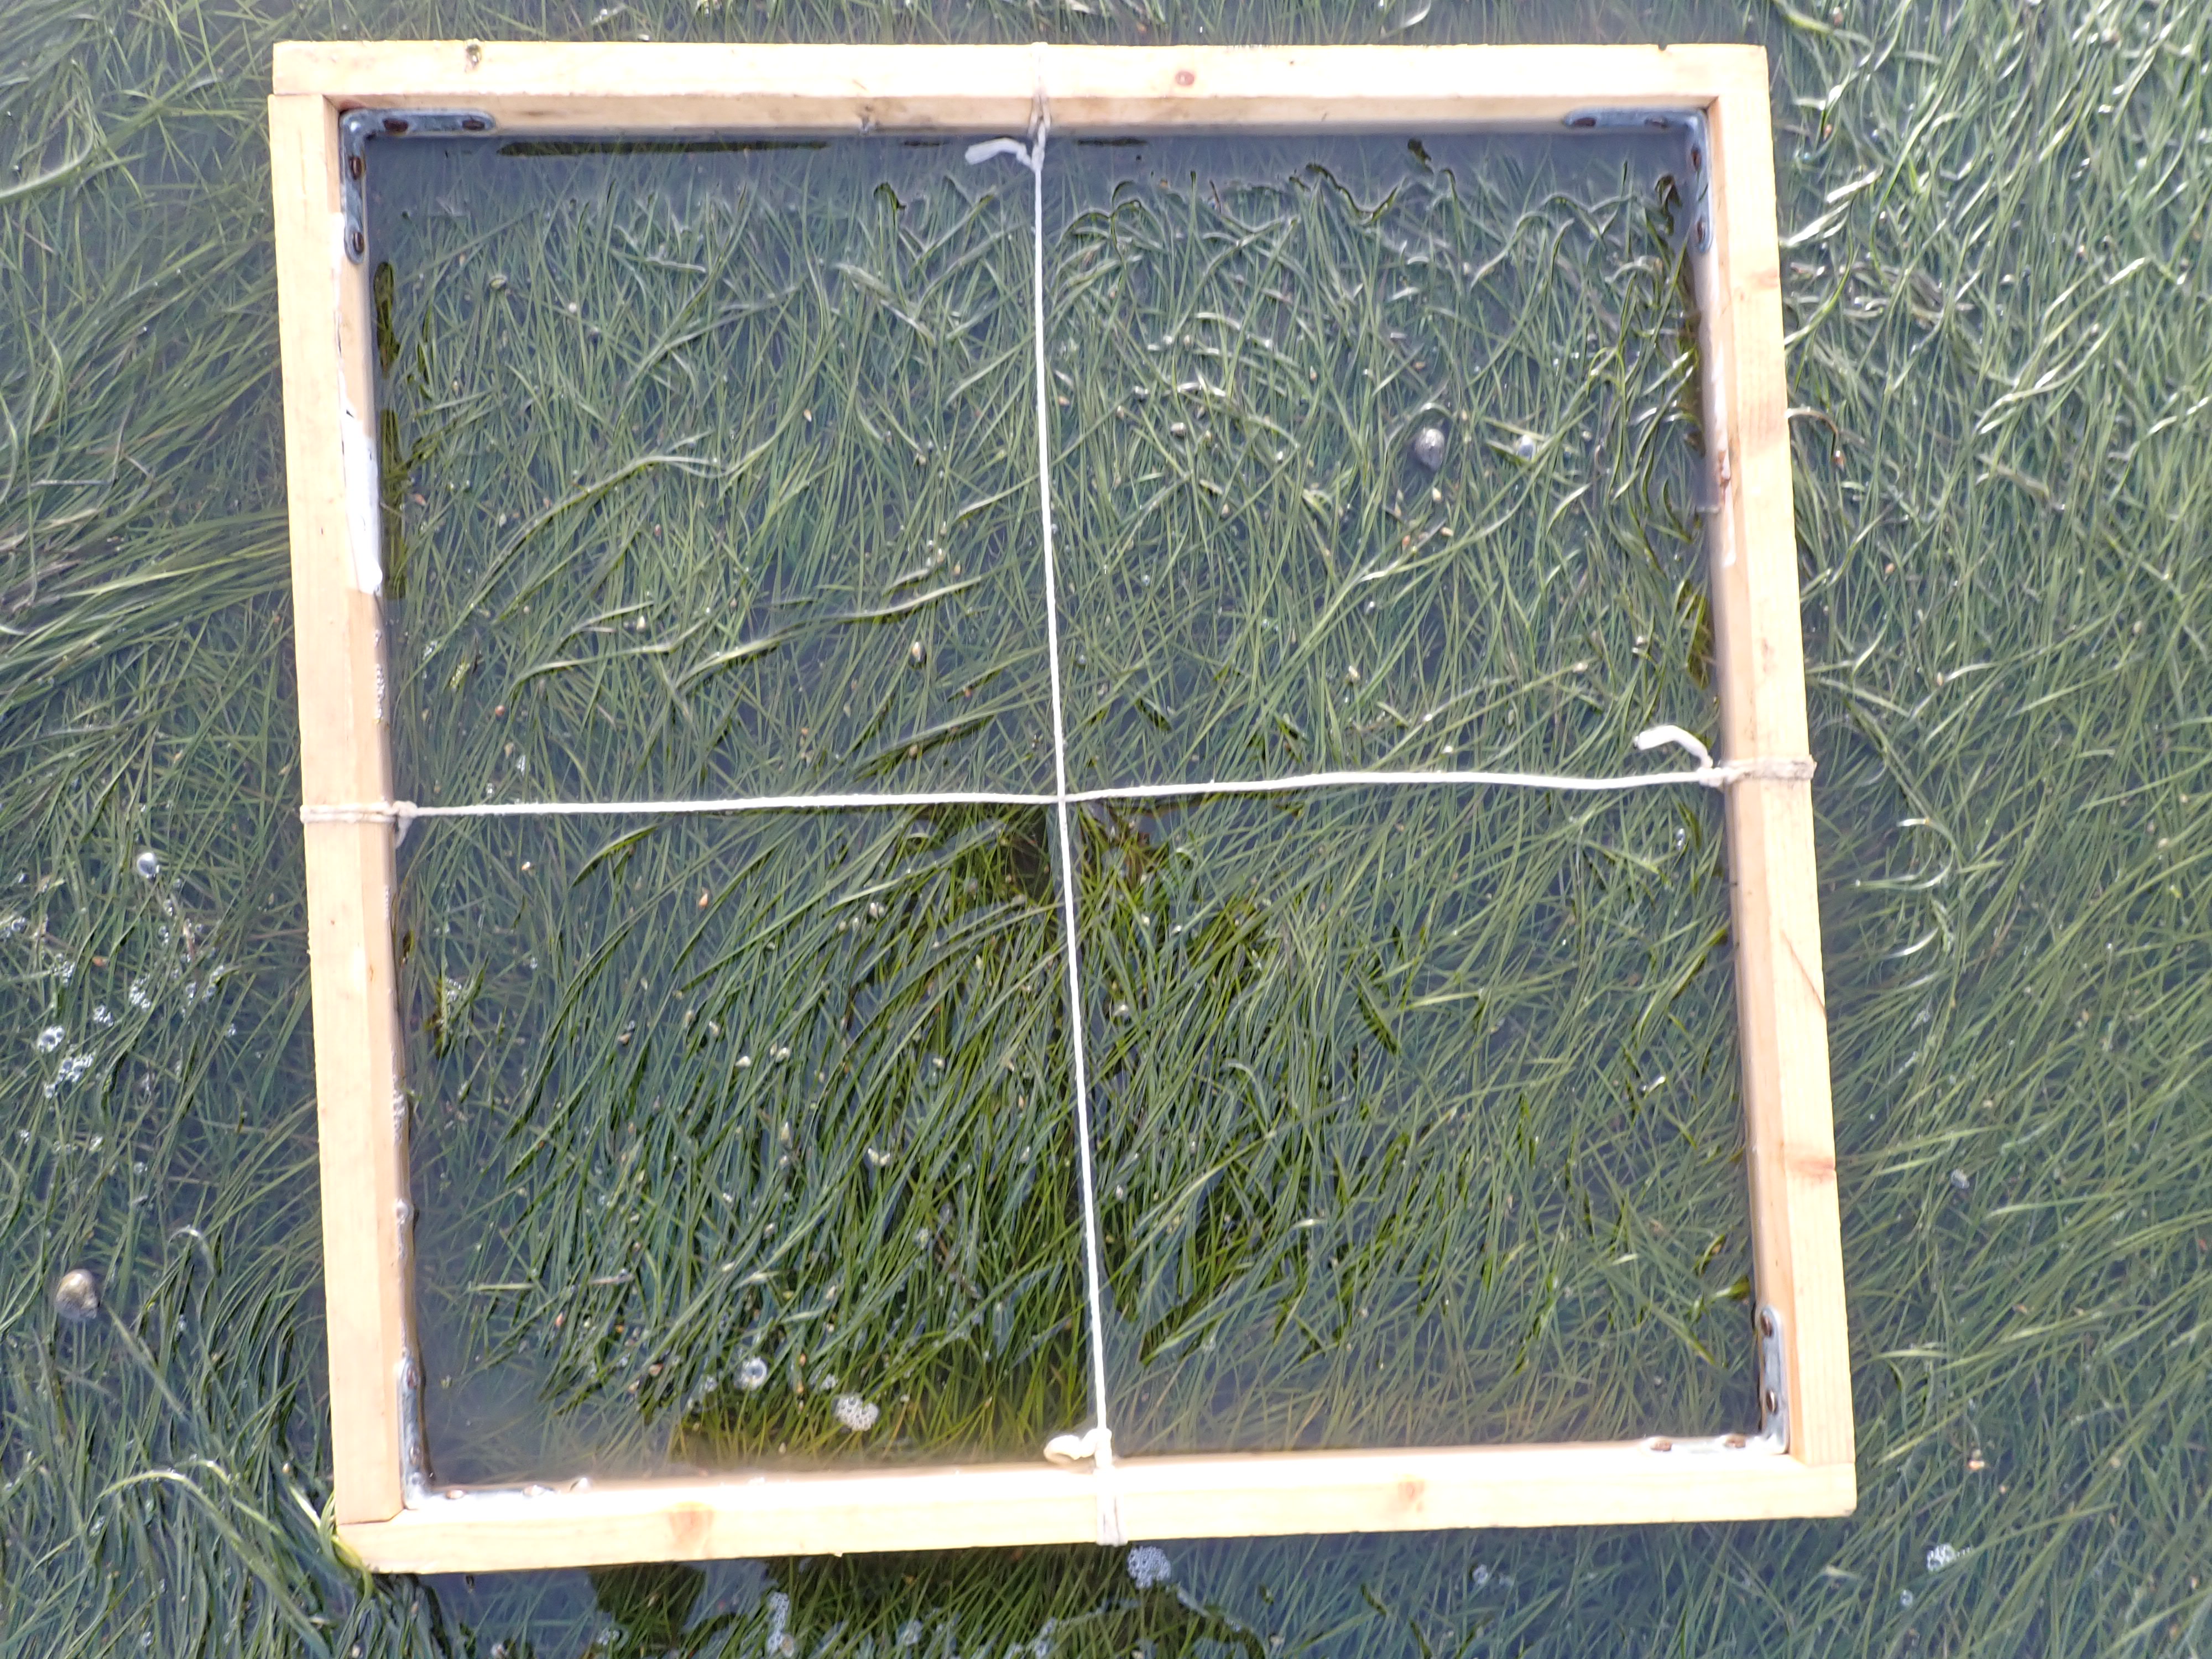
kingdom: Plantae
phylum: Tracheophyta
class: Liliopsida
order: Alismatales
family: Zosteraceae
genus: Zostera
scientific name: Zostera noltii
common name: Dwarf eelgrass
